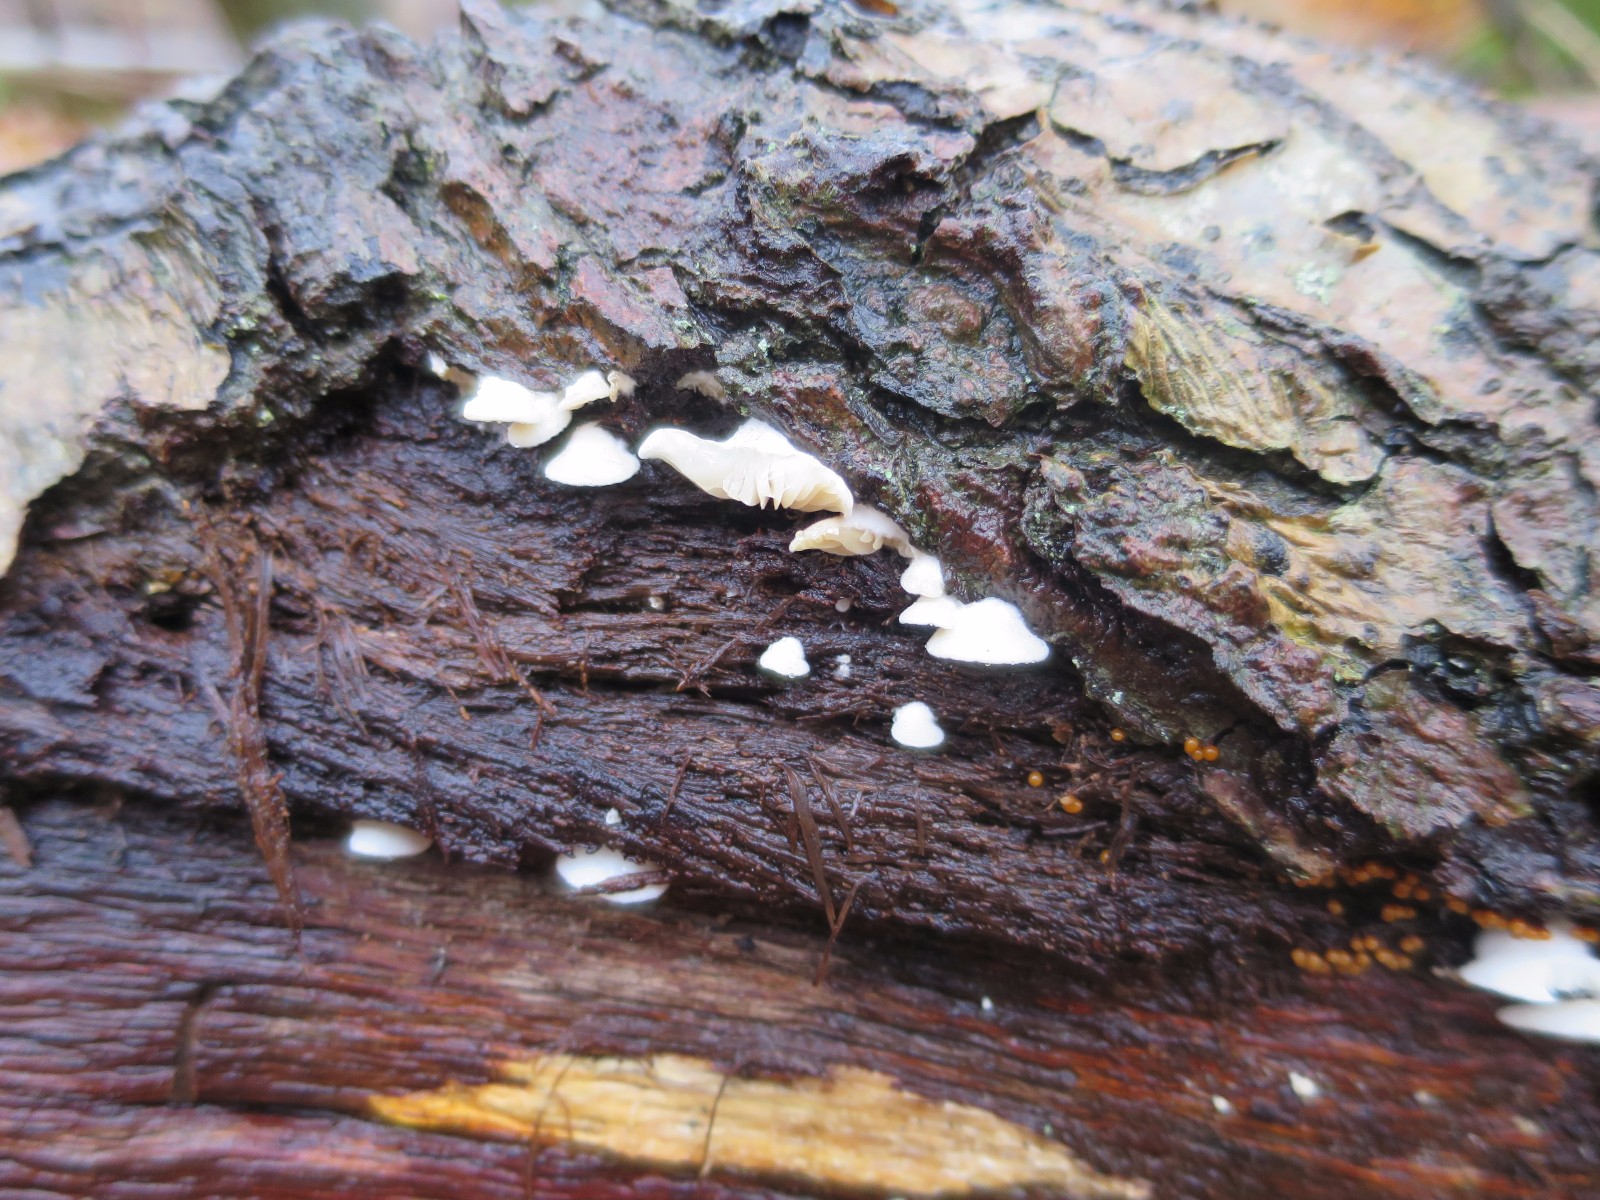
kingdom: Fungi
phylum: Basidiomycota
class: Agaricomycetes
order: Agaricales
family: Entolomataceae
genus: Clitopilus
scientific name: Clitopilus hobsonii
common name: Miller's oysterling
